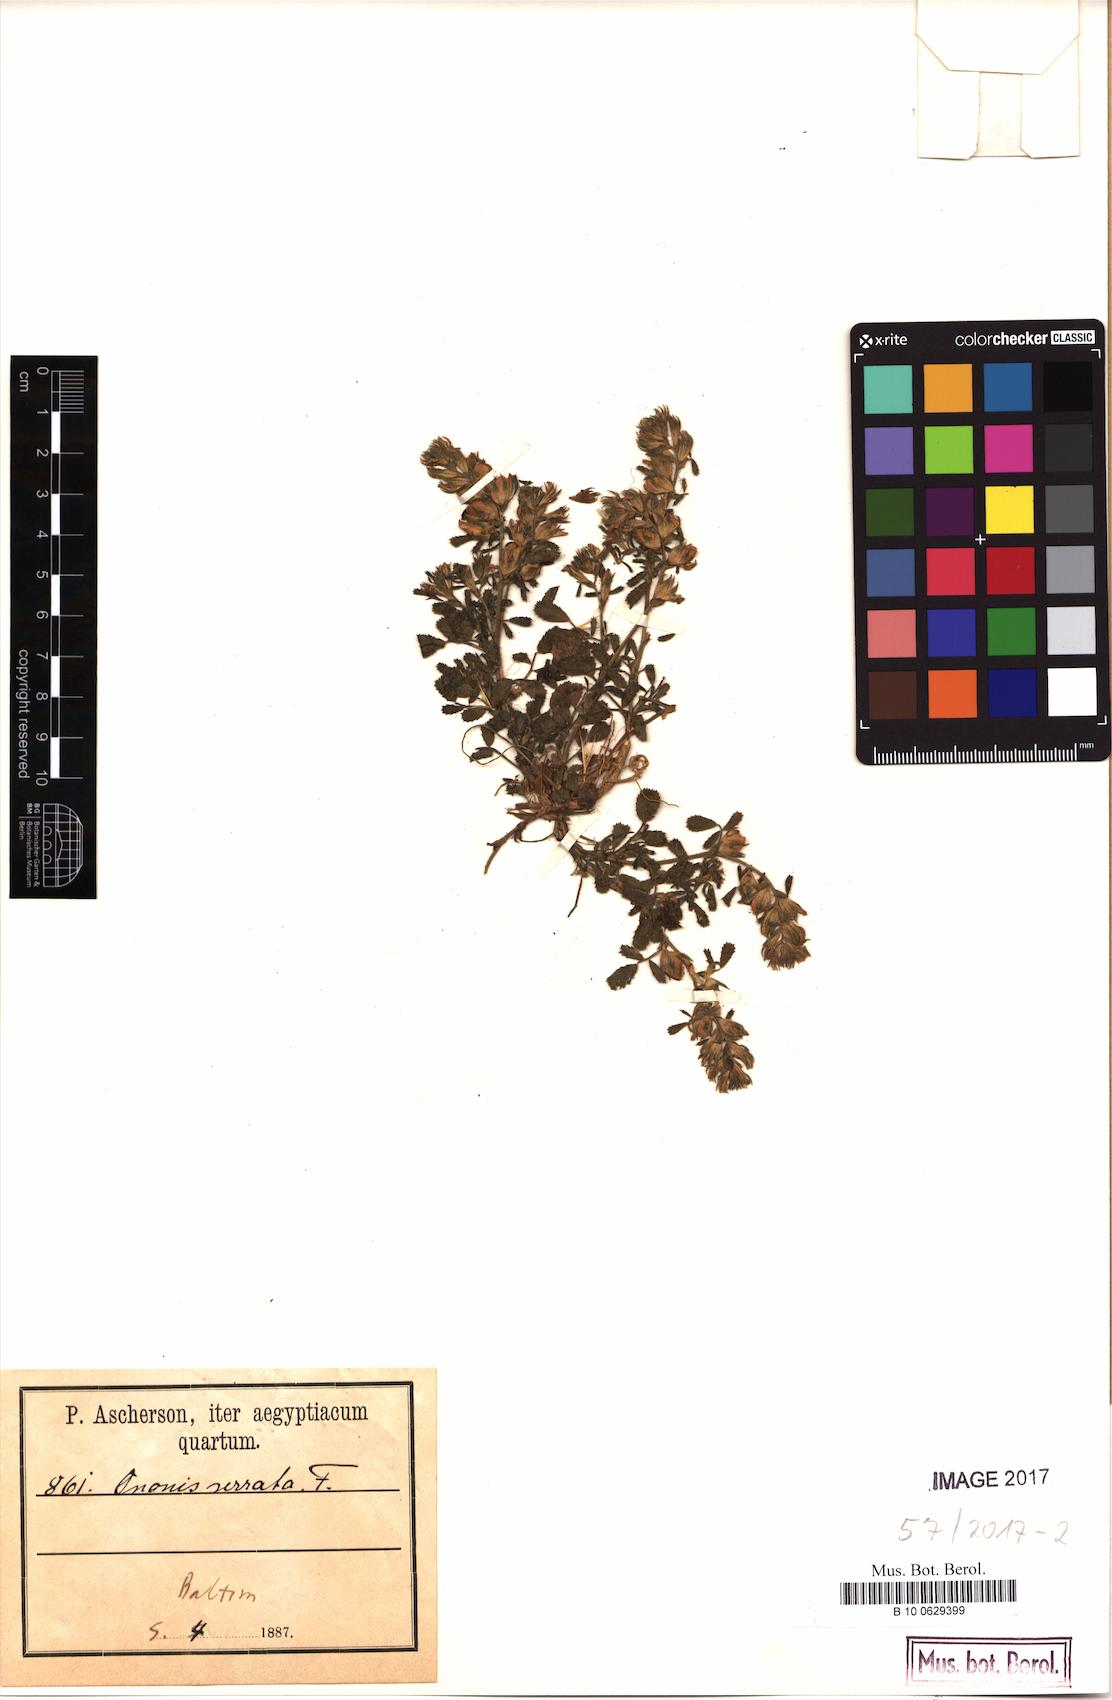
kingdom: Plantae
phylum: Tracheophyta
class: Magnoliopsida
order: Fabales
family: Fabaceae
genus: Ononis
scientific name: Ononis serrata
